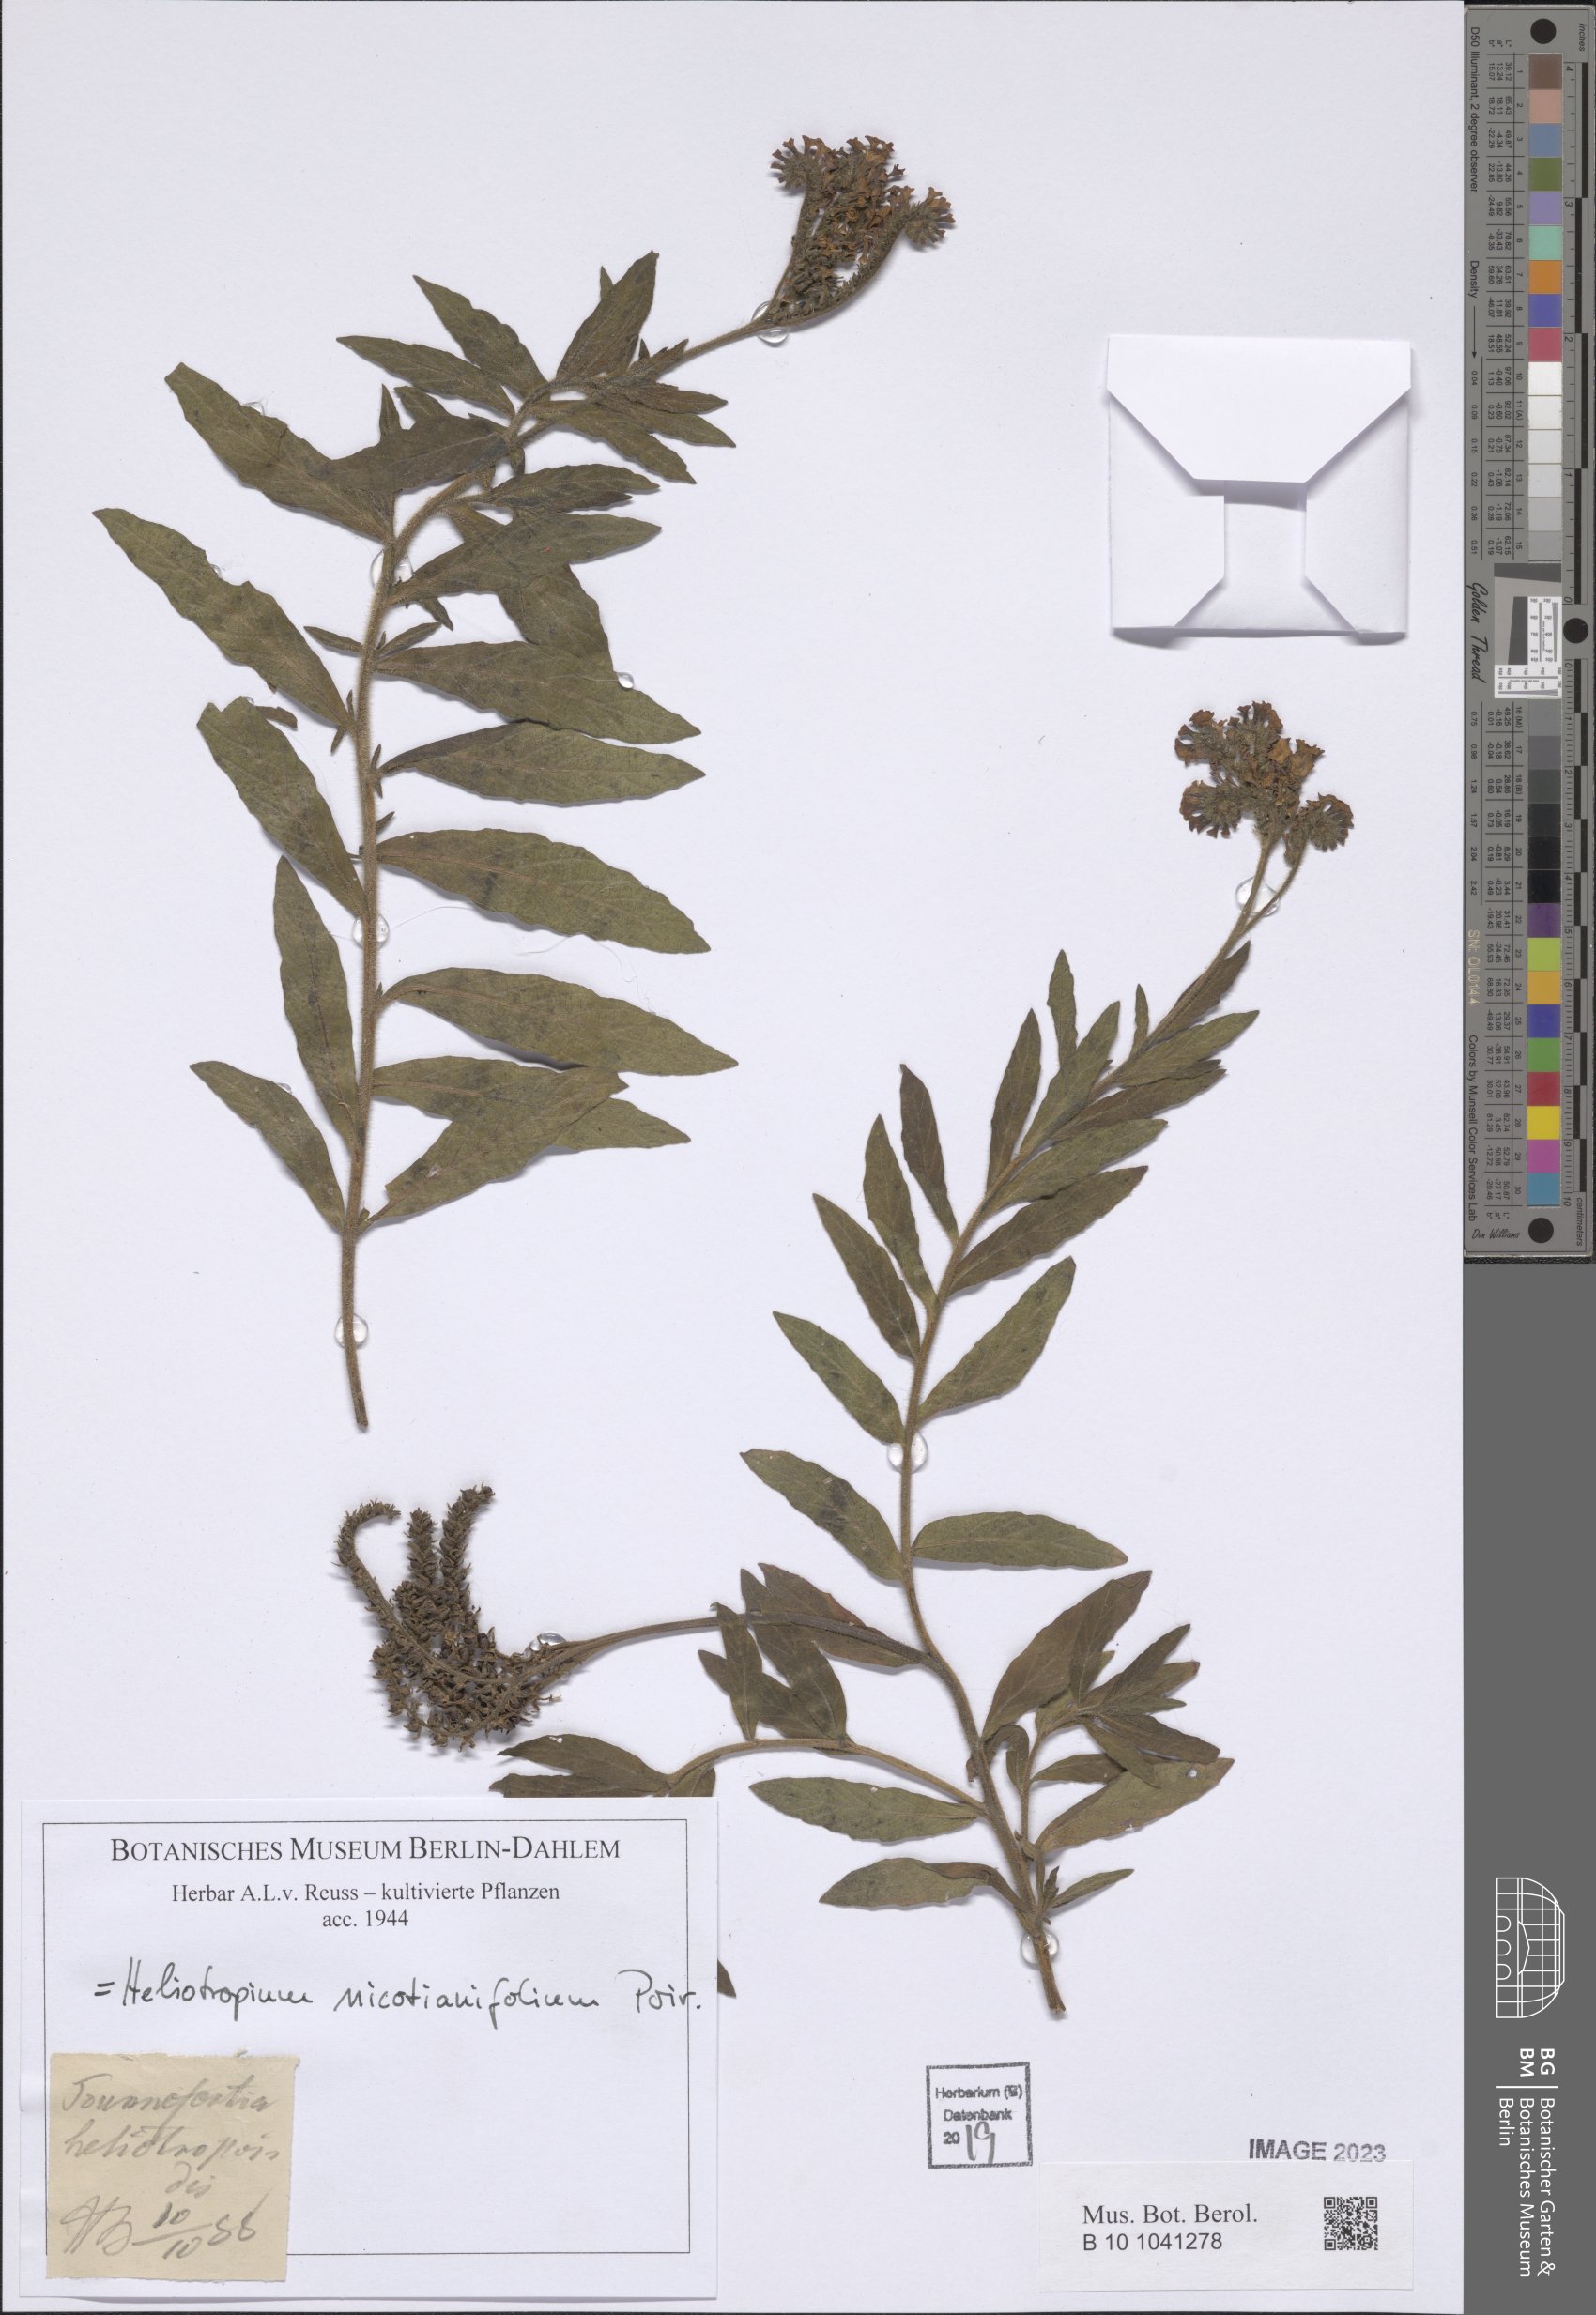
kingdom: Plantae
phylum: Tracheophyta
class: Magnoliopsida
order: Boraginales
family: Heliotropiaceae
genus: Heliotropium
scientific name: Heliotropium nicotianifolium
